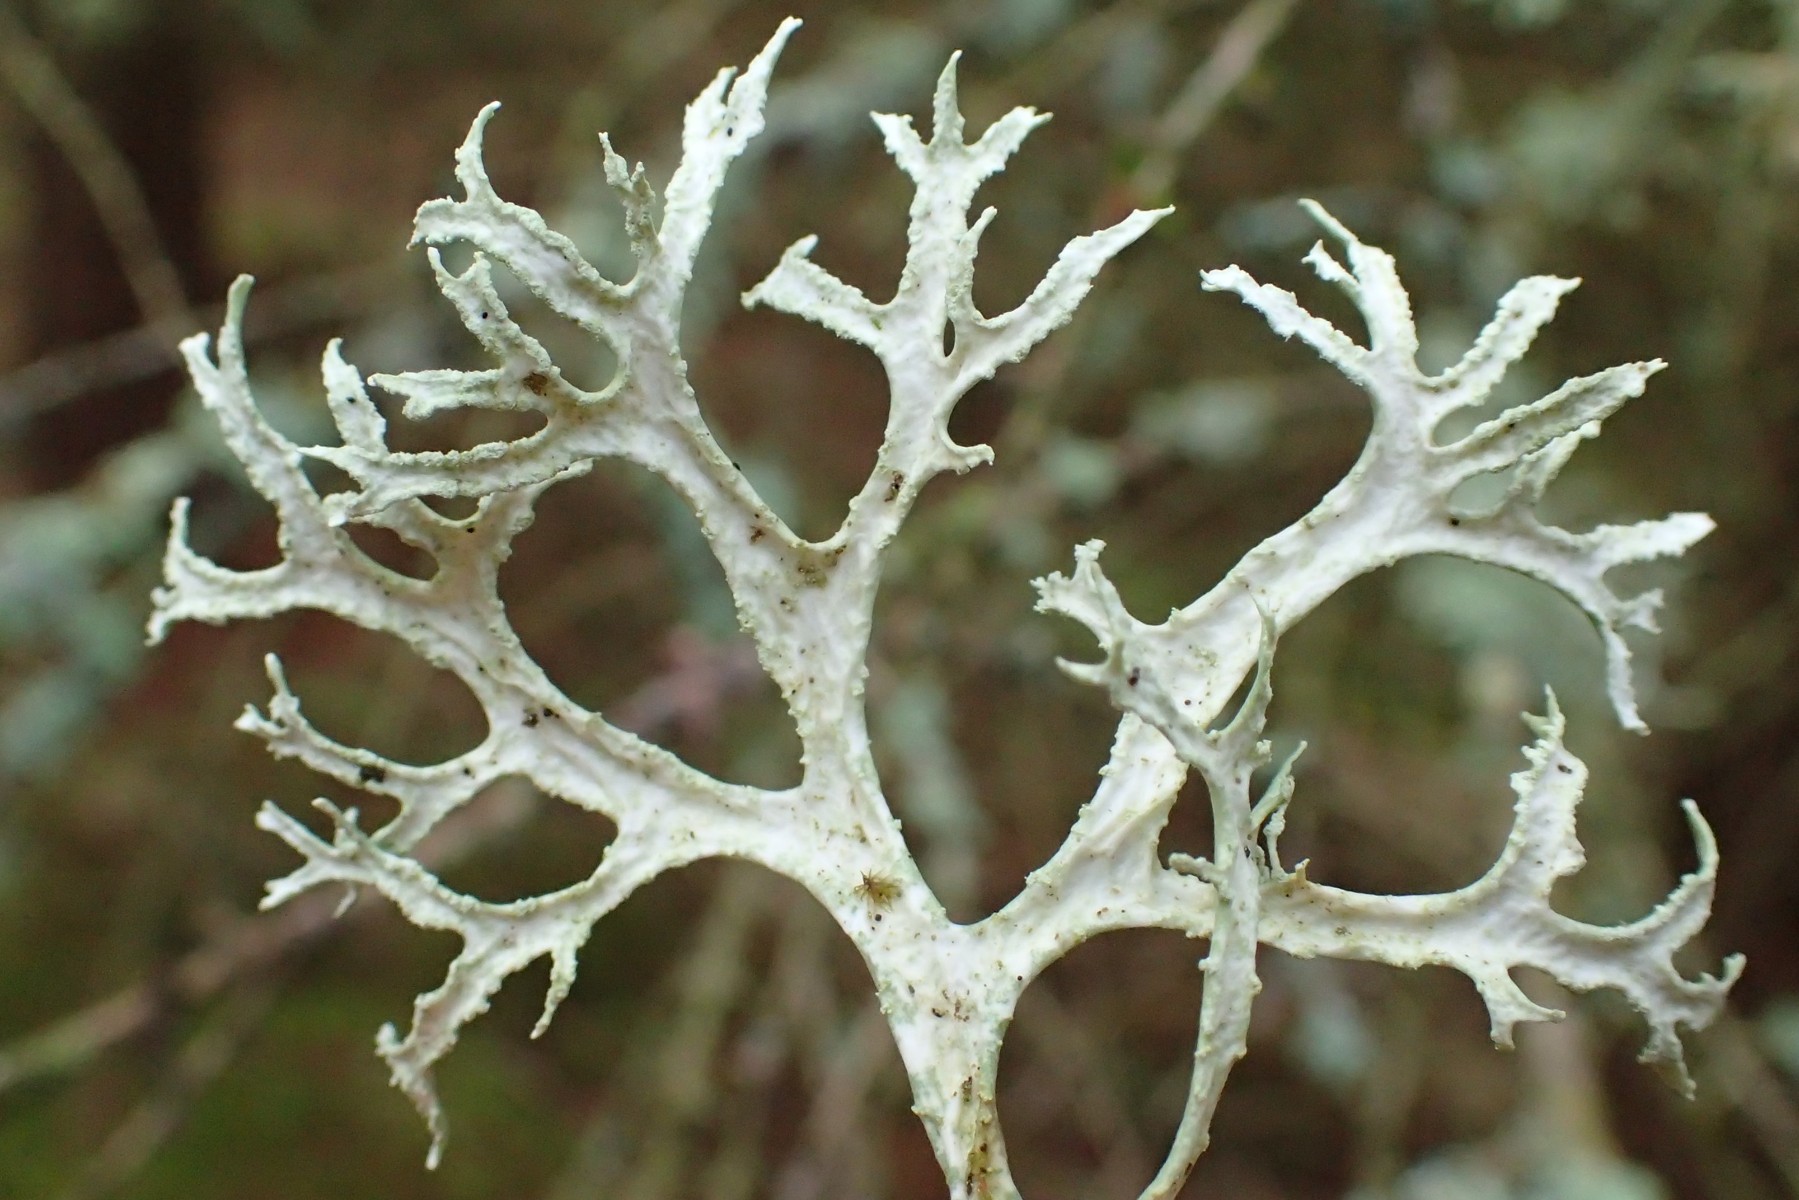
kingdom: Fungi
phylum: Ascomycota
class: Lecanoromycetes
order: Lecanorales
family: Parmeliaceae
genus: Evernia
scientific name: Evernia prunastri
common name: almindelig slåenlav
